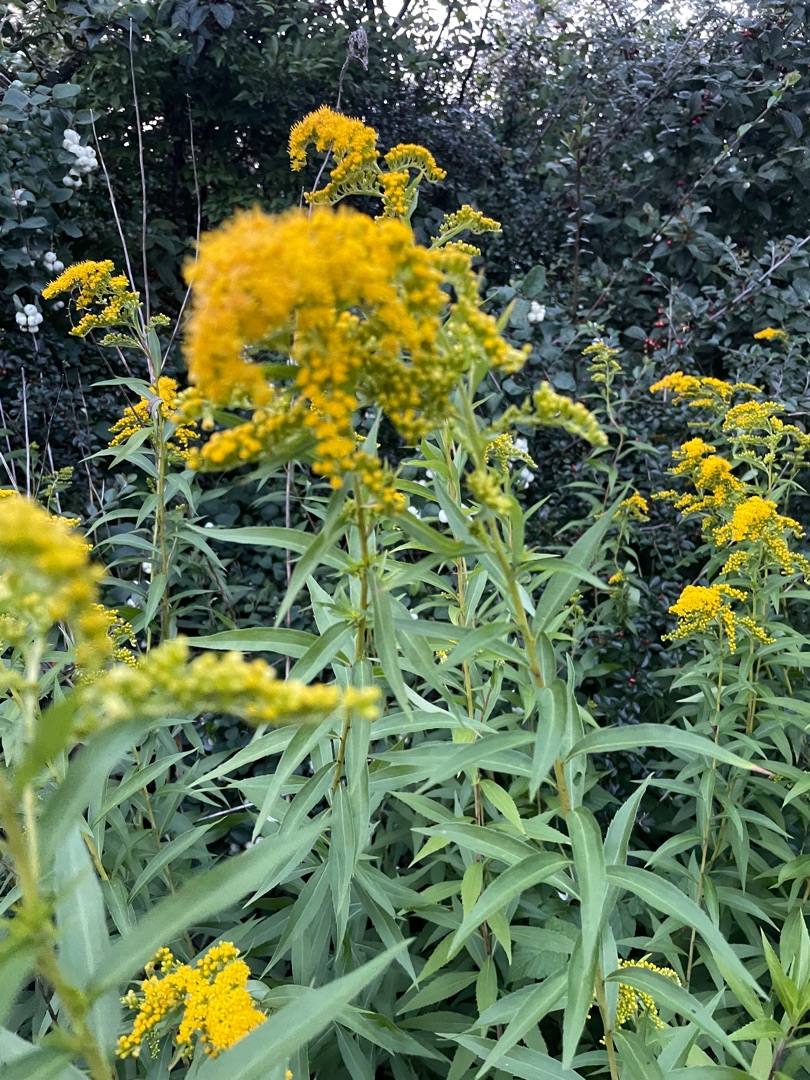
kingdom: Plantae
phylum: Tracheophyta
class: Magnoliopsida
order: Asterales
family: Asteraceae
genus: Solidago
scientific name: Solidago gigantea
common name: Sildig gyldenris
